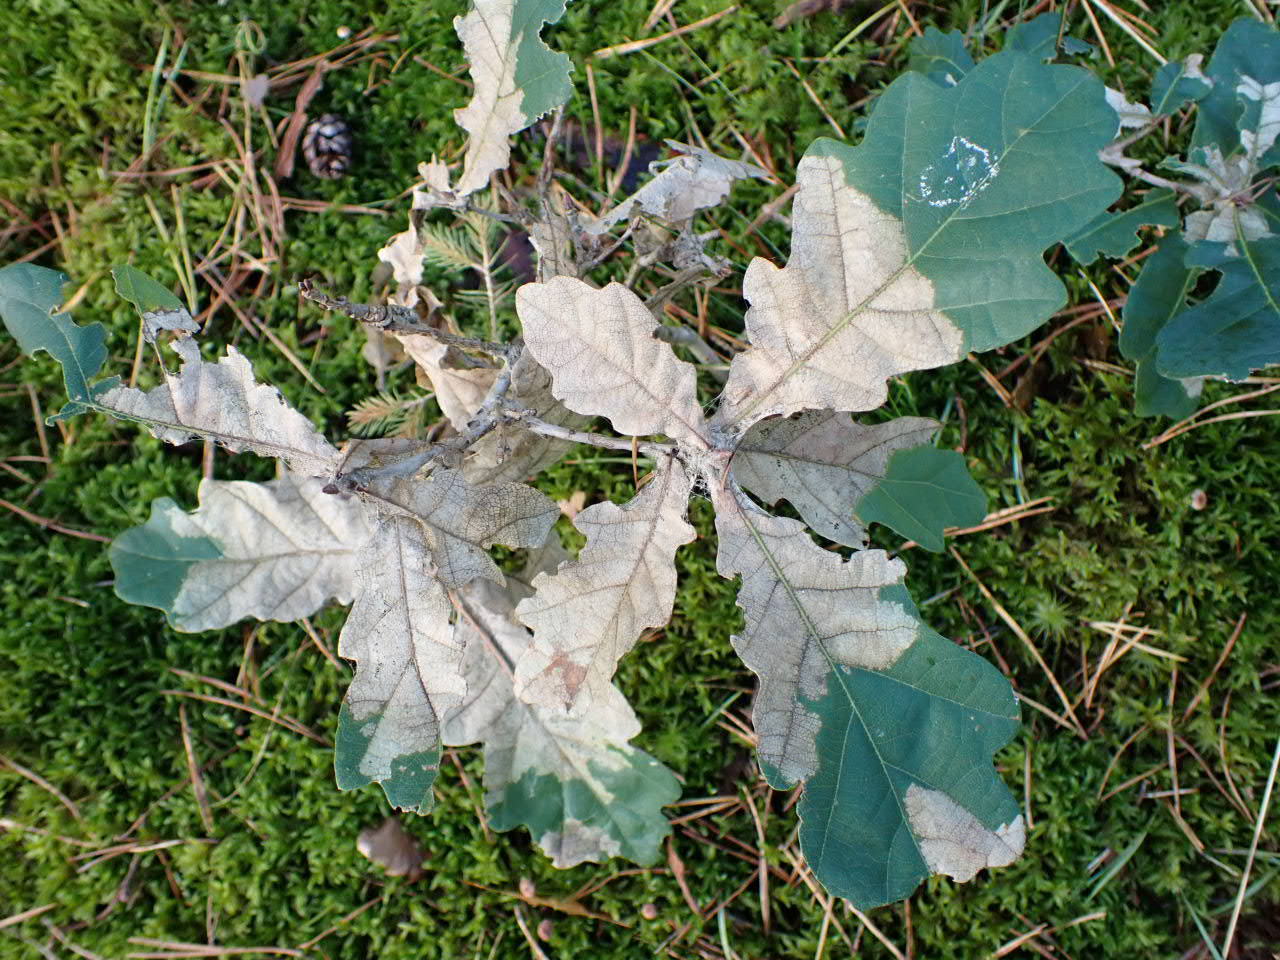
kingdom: Plantae
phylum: Tracheophyta
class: Magnoliopsida
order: Fagales
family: Fagaceae
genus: Quercus
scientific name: Quercus robur
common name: Stilk-eg/almindelig eg
